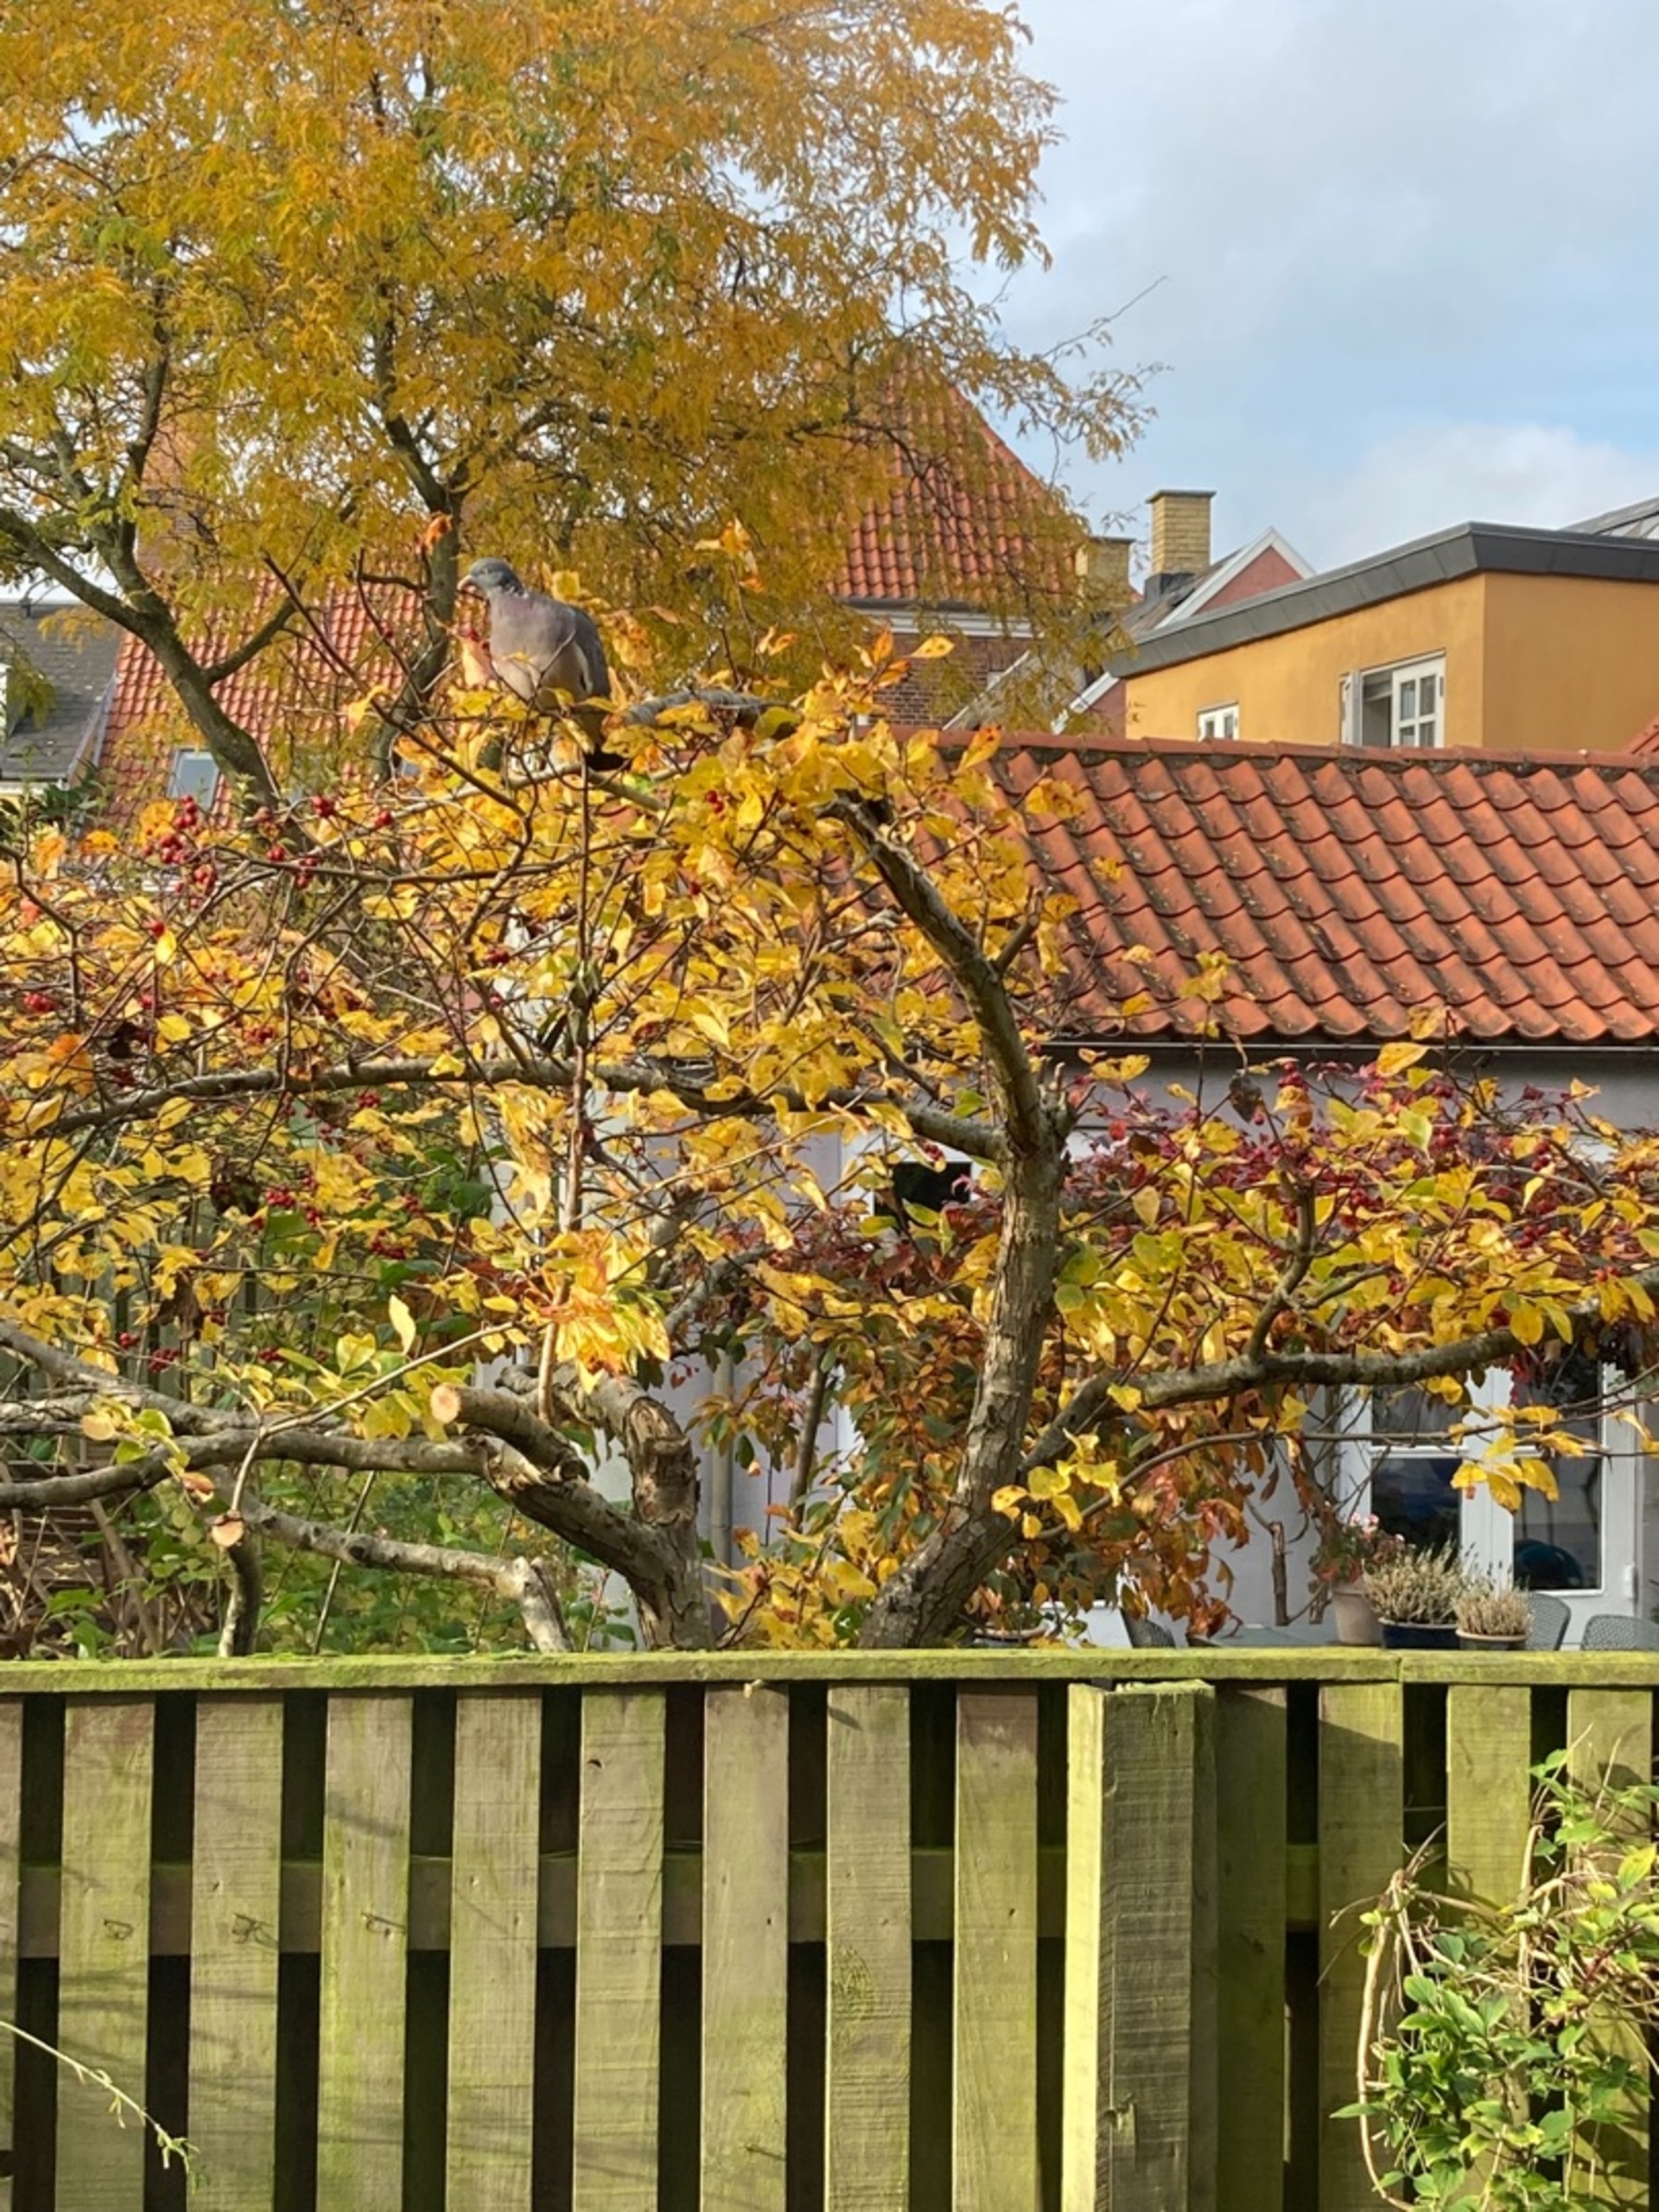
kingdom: Animalia
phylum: Chordata
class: Aves
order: Columbiformes
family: Columbidae
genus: Columba
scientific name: Columba palumbus
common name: Ringdue
